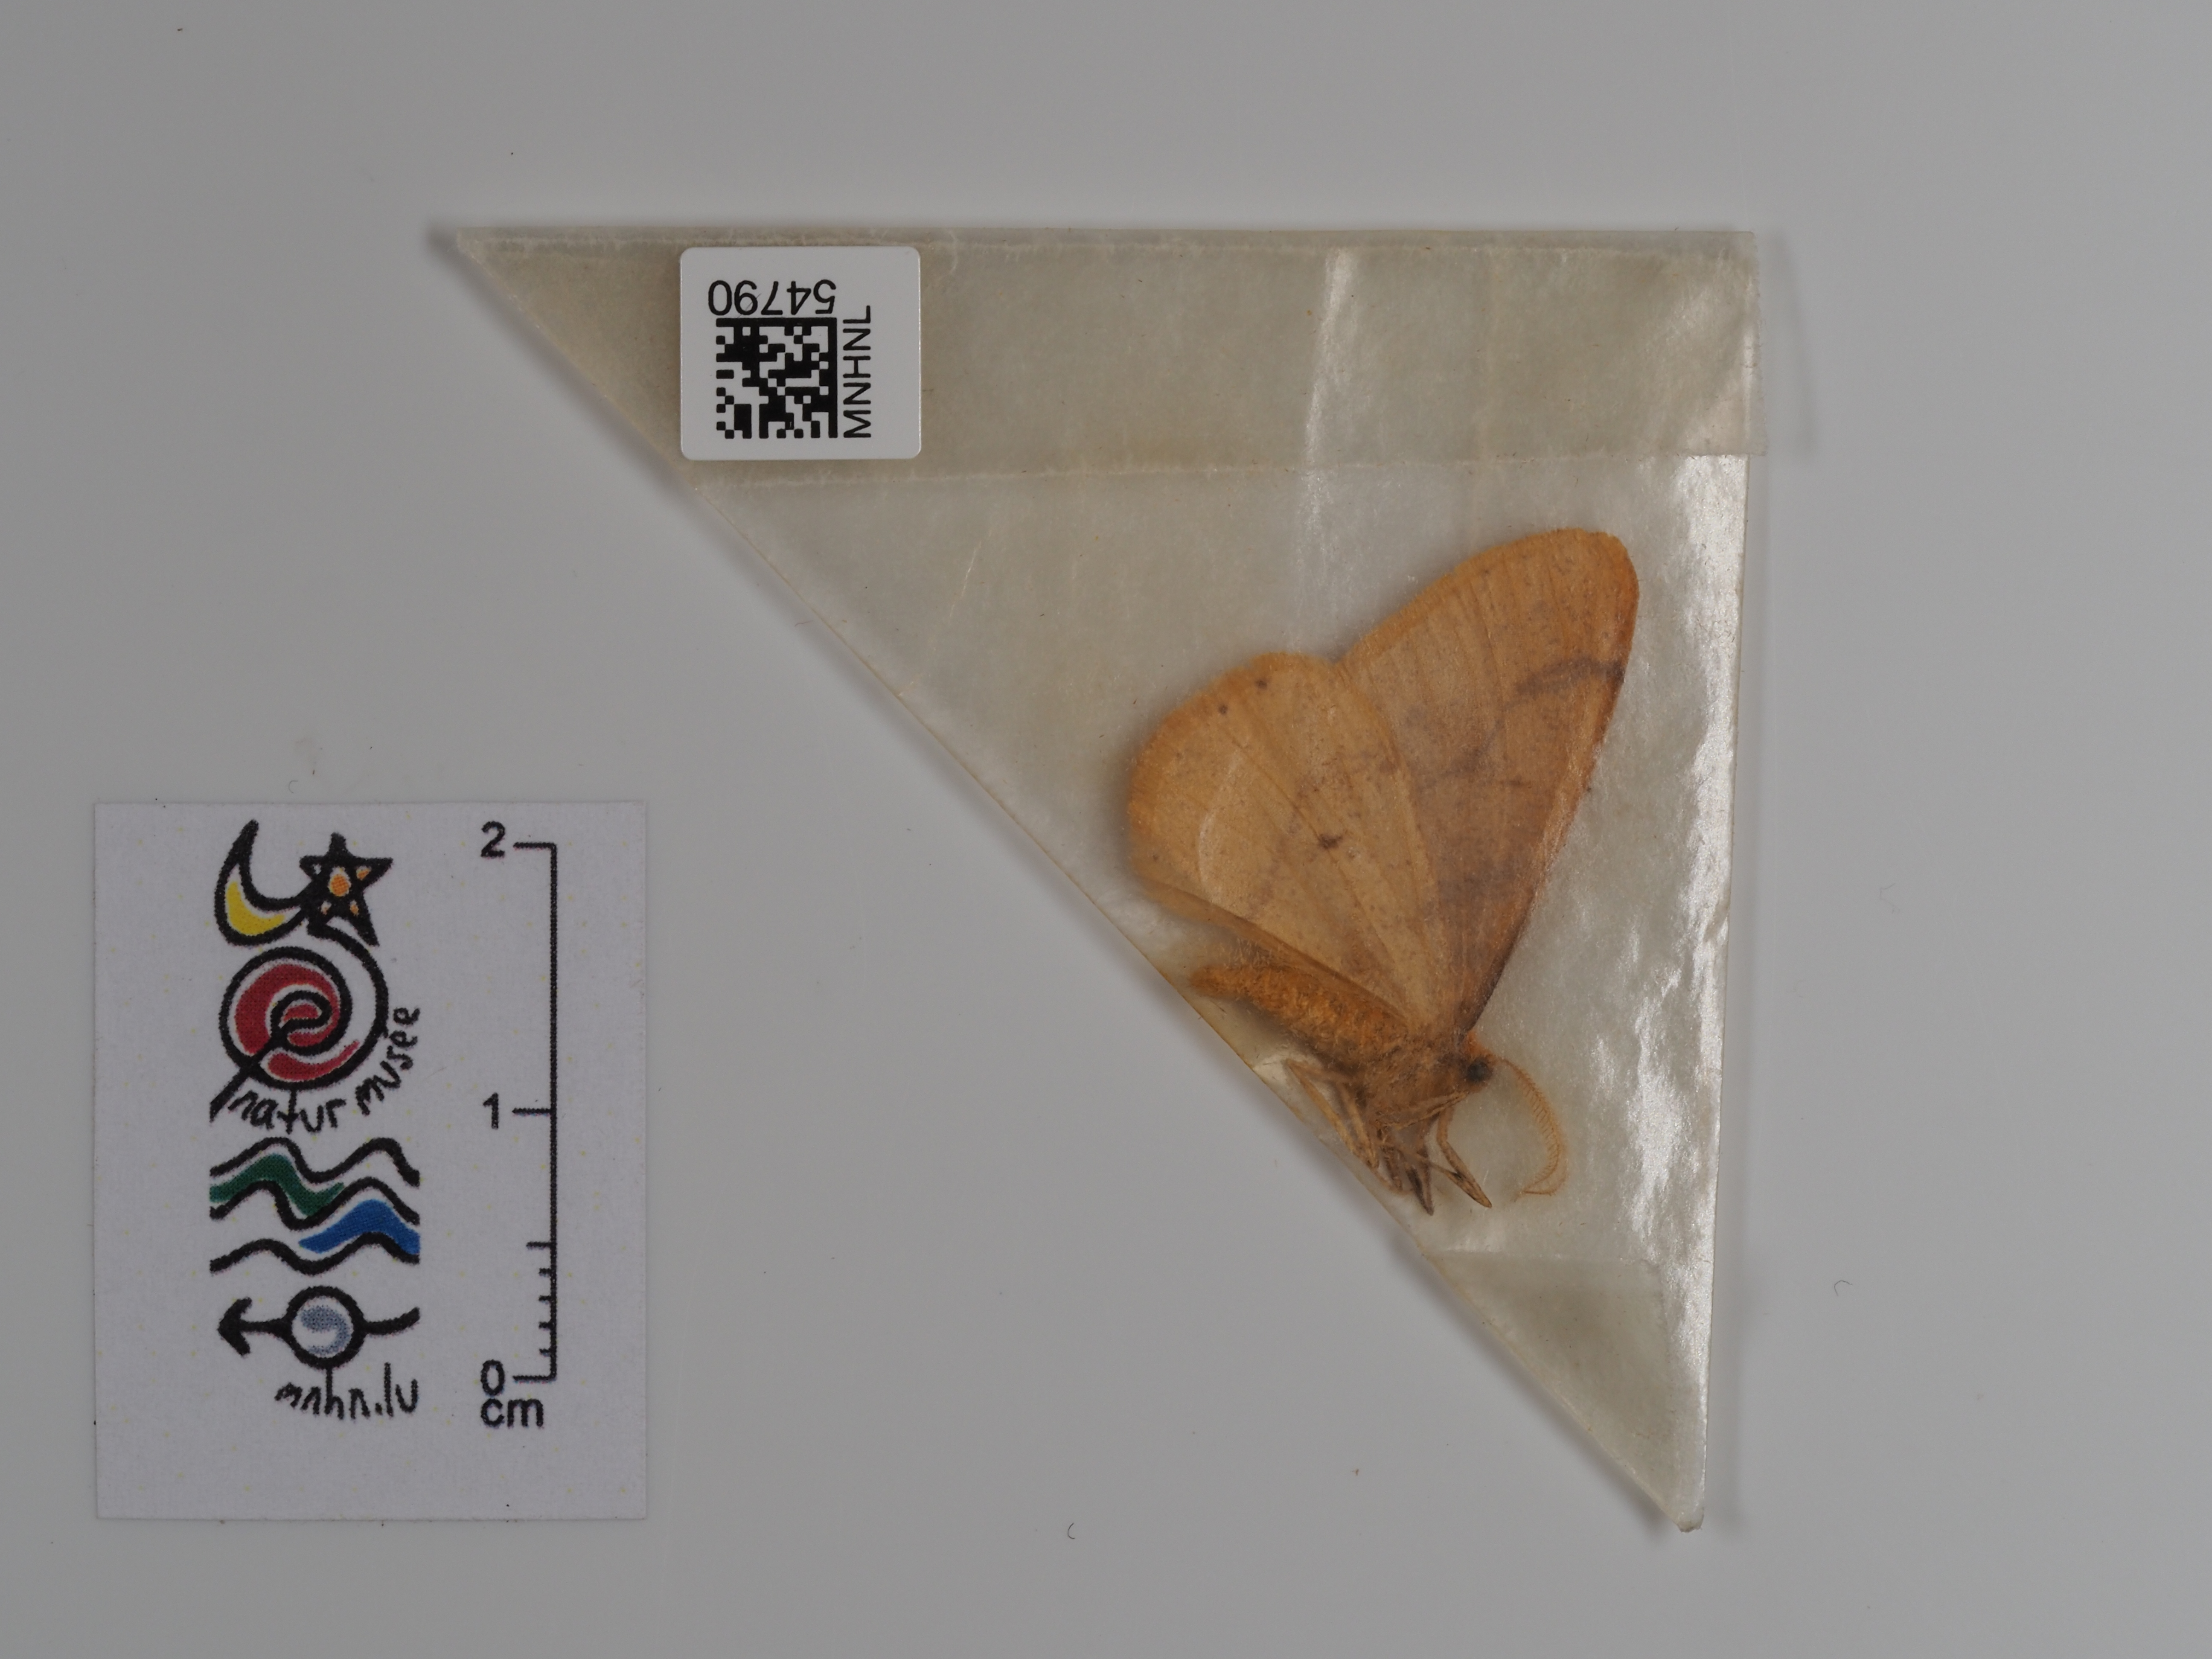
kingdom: Animalia
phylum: Arthropoda
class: Insecta
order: Lepidoptera
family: Geometridae
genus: Agriopis
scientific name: Agriopis aurantiaria
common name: Scarce umber
